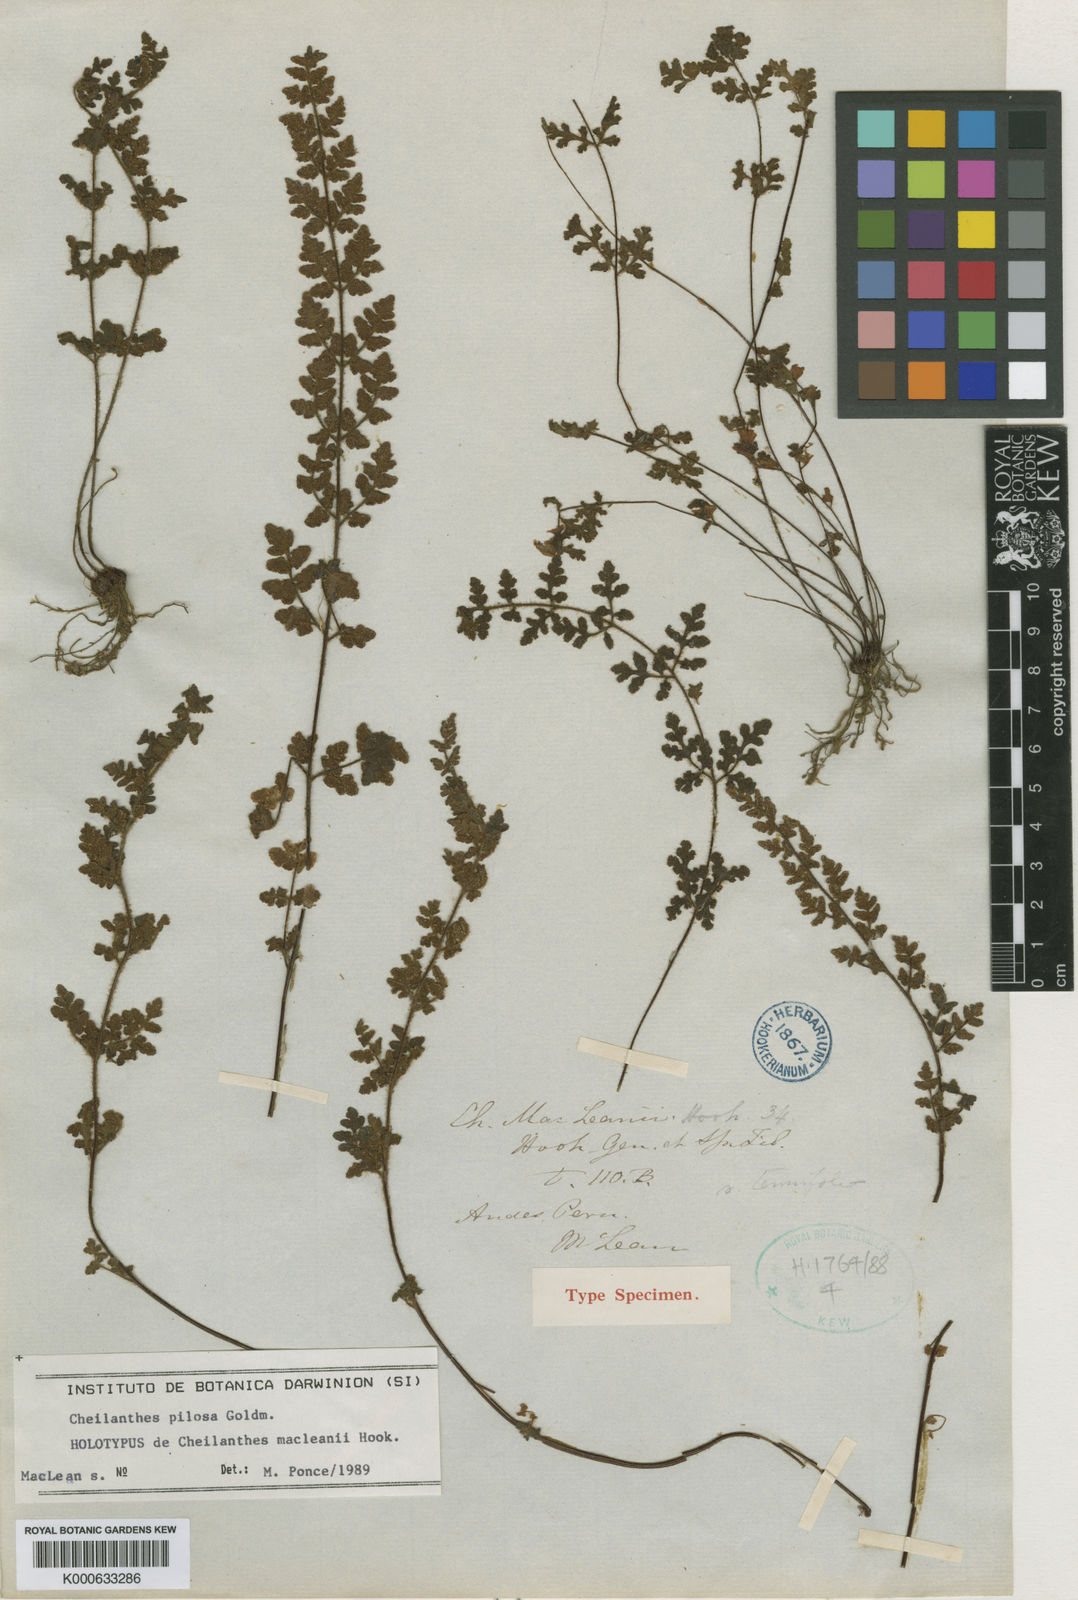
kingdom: Plantae
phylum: Tracheophyta
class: Polypodiopsida
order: Polypodiales
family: Pteridaceae
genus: Cheilanthes
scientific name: Cheilanthes pilosa
